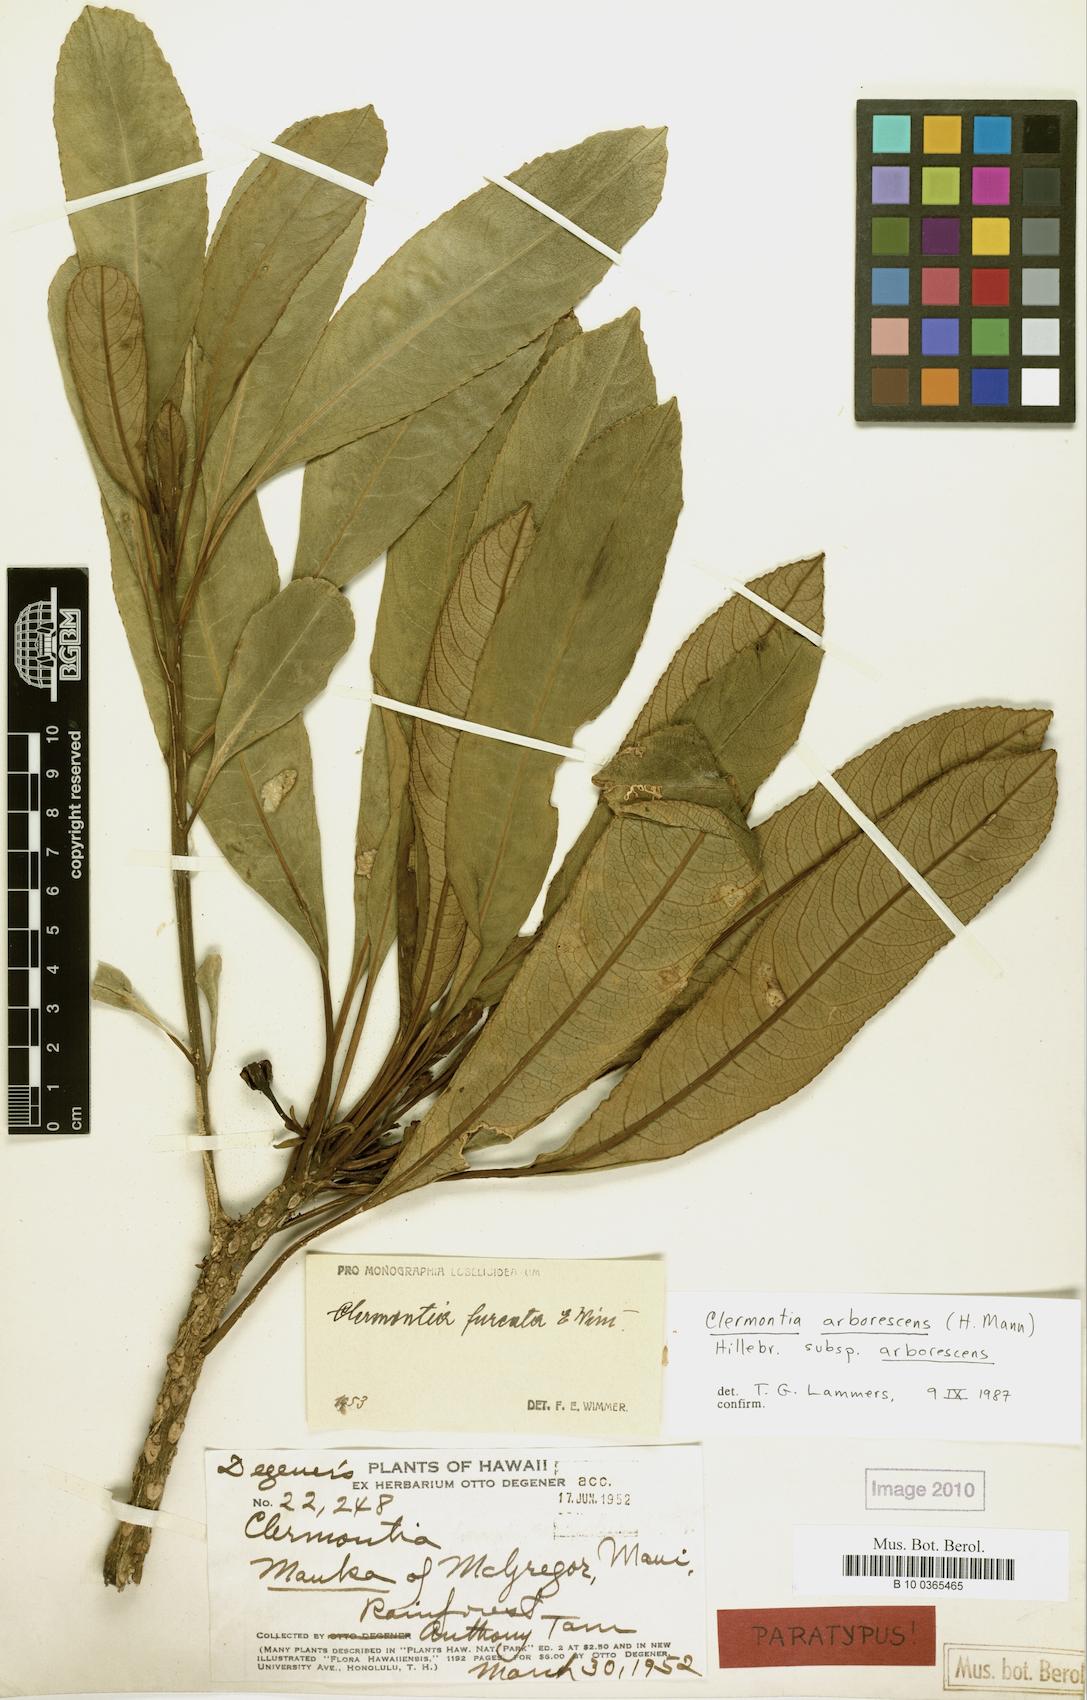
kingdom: Plantae
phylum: Tracheophyta
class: Magnoliopsida
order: Asterales
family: Campanulaceae
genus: Clermontia
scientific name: Clermontia arborescens
